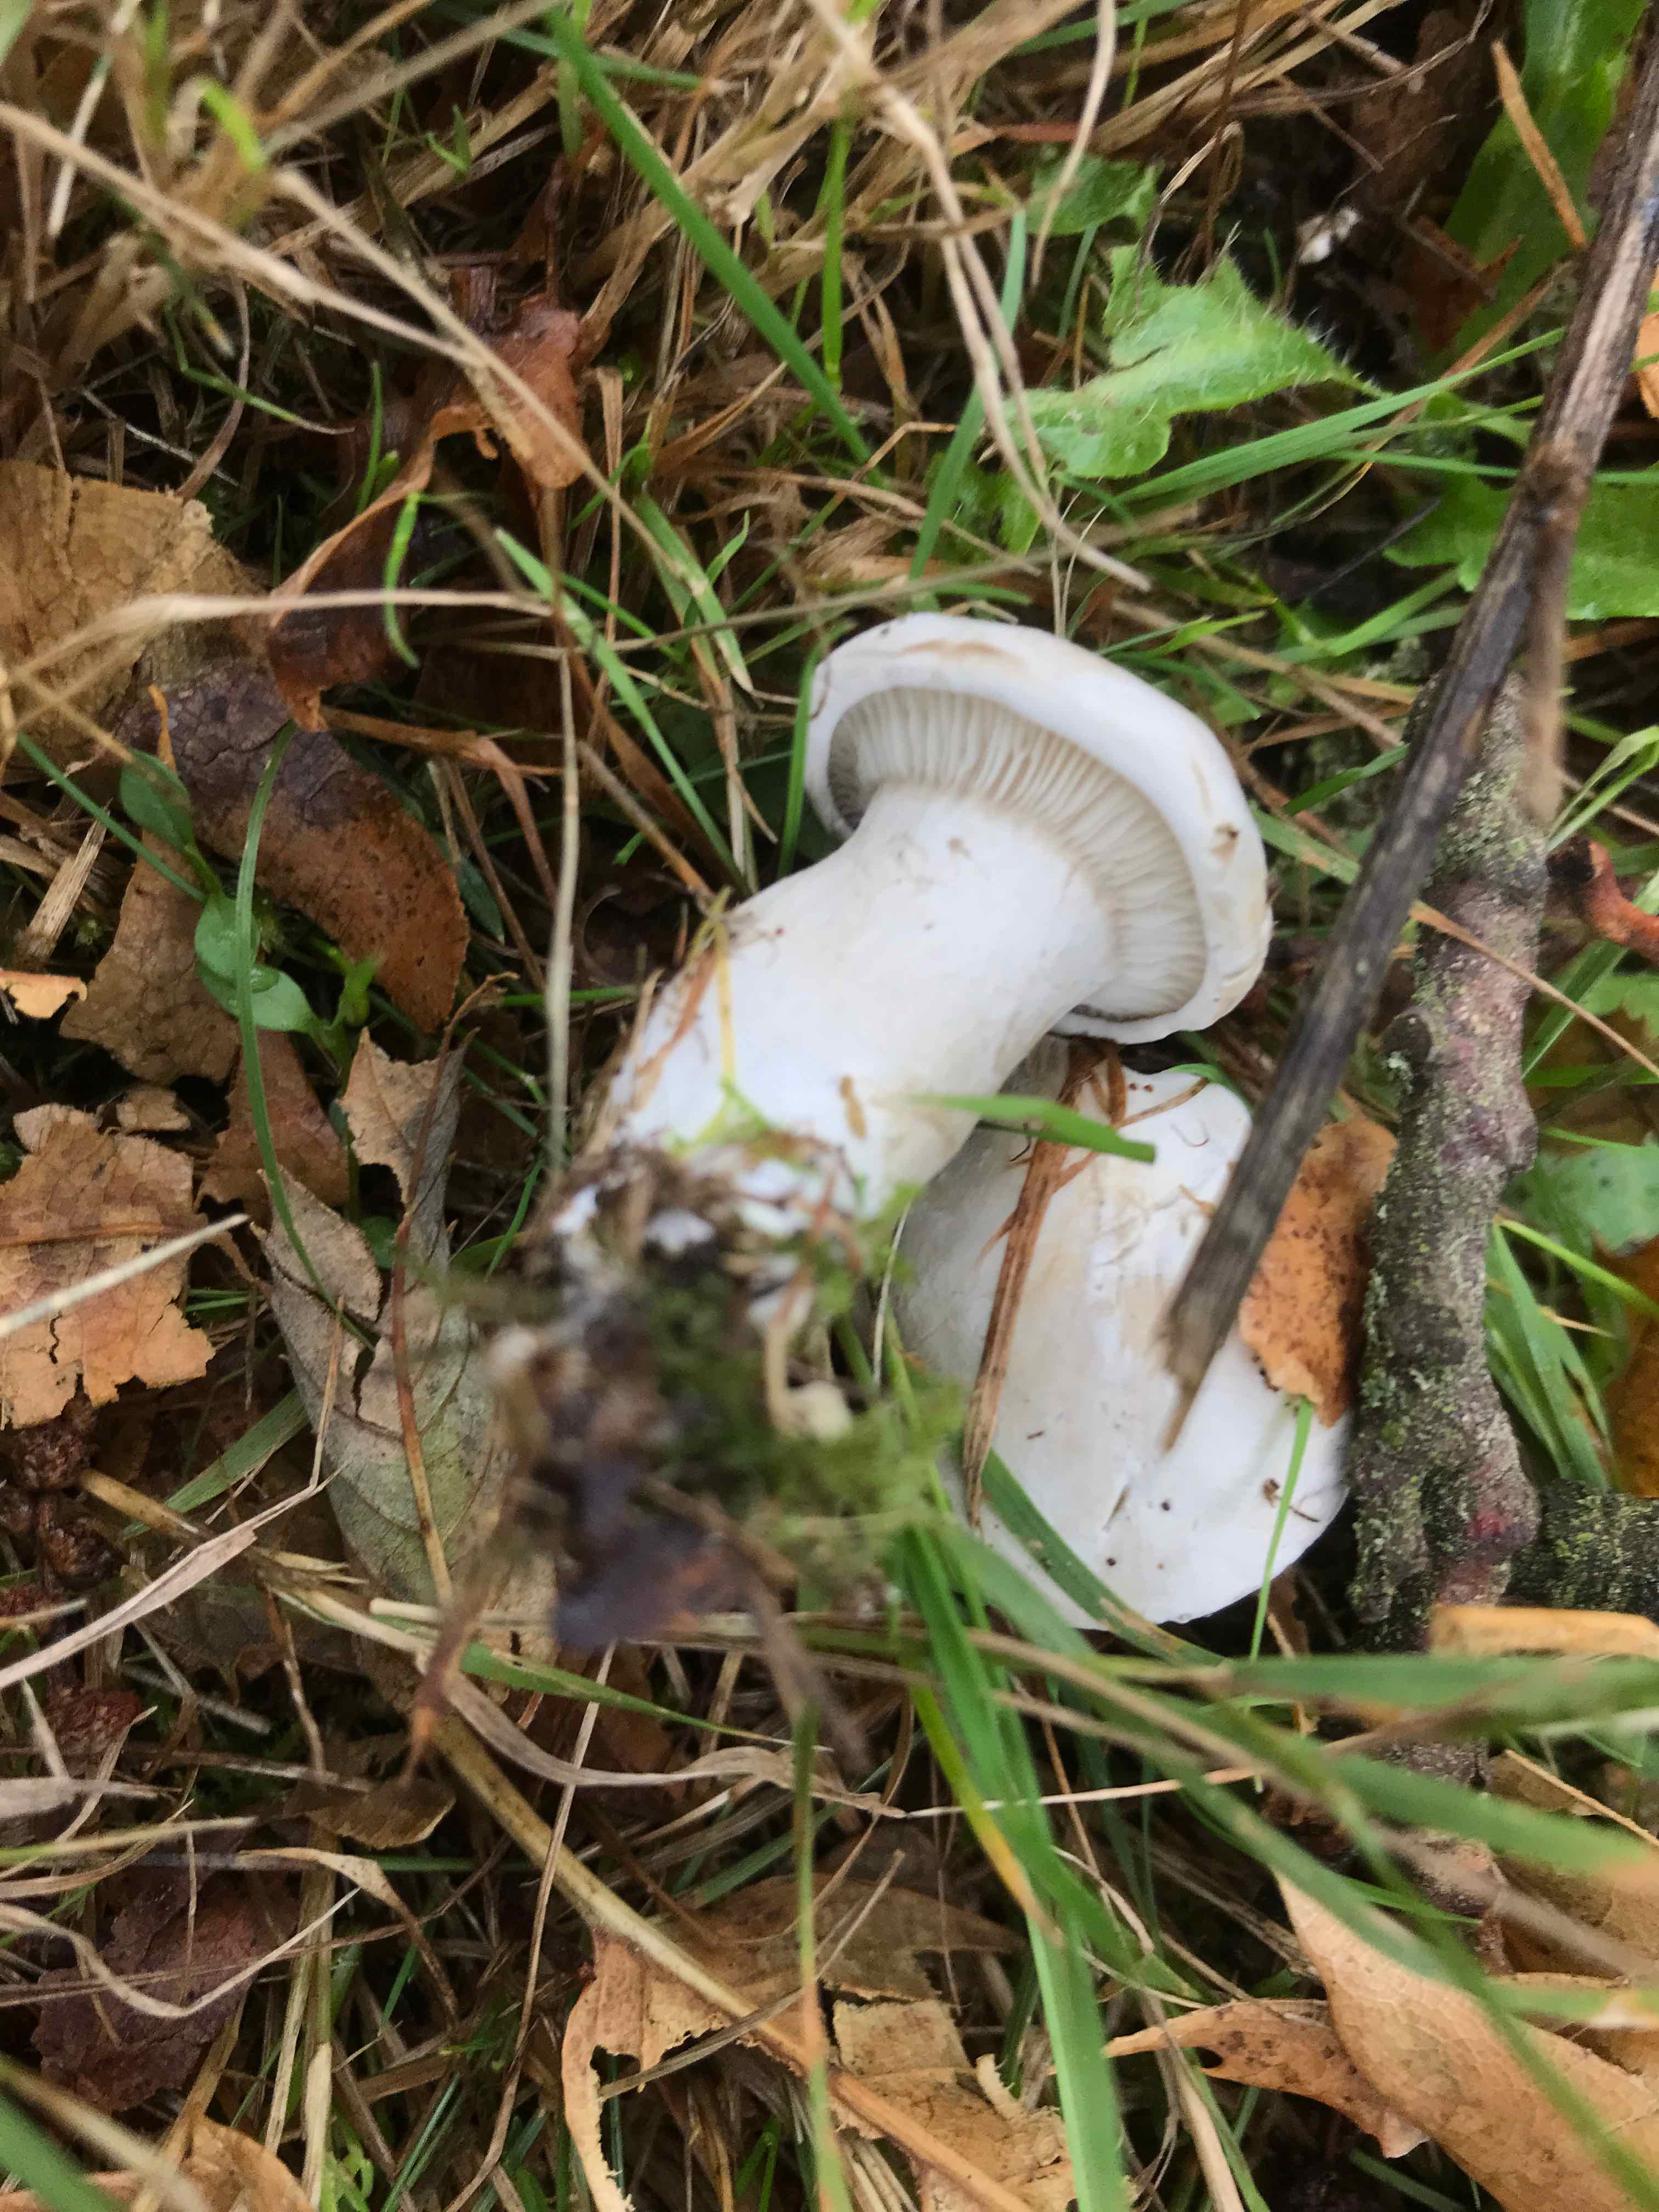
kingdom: Fungi
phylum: Basidiomycota
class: Agaricomycetes
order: Agaricales
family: Entolomataceae
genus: Clitopilus
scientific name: Clitopilus prunulus
